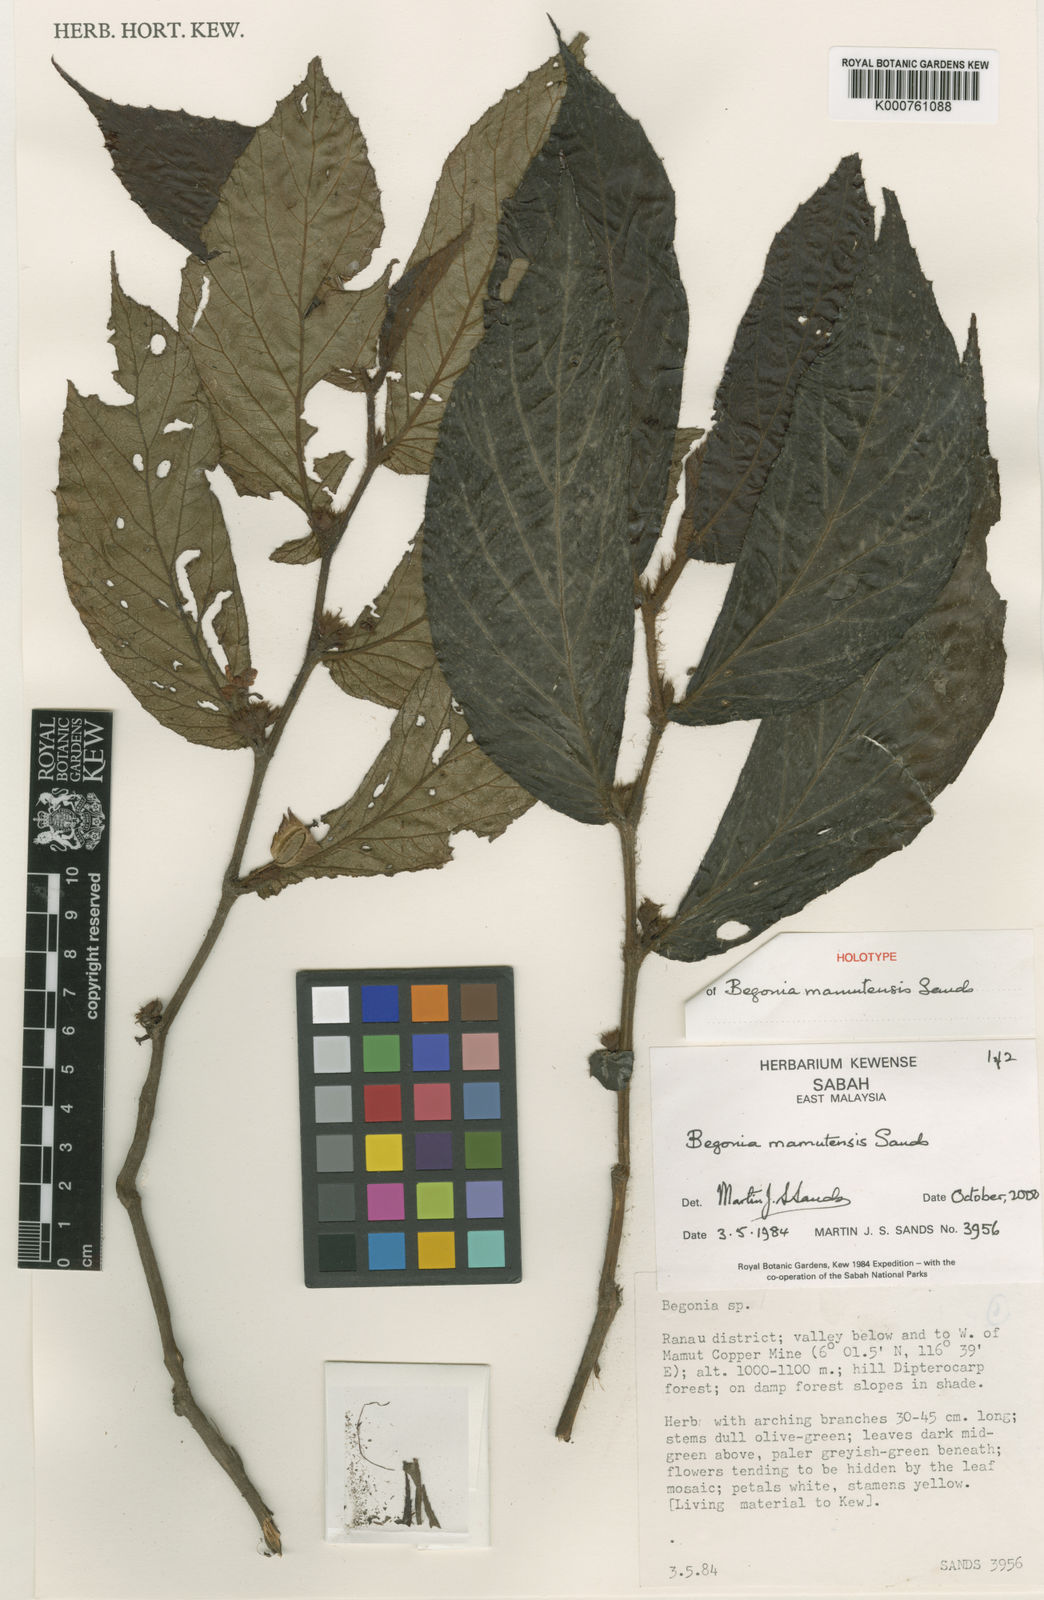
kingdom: Plantae
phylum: Tracheophyta
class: Magnoliopsida
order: Cucurbitales
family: Begoniaceae
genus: Begonia
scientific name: Begonia mamutensis
